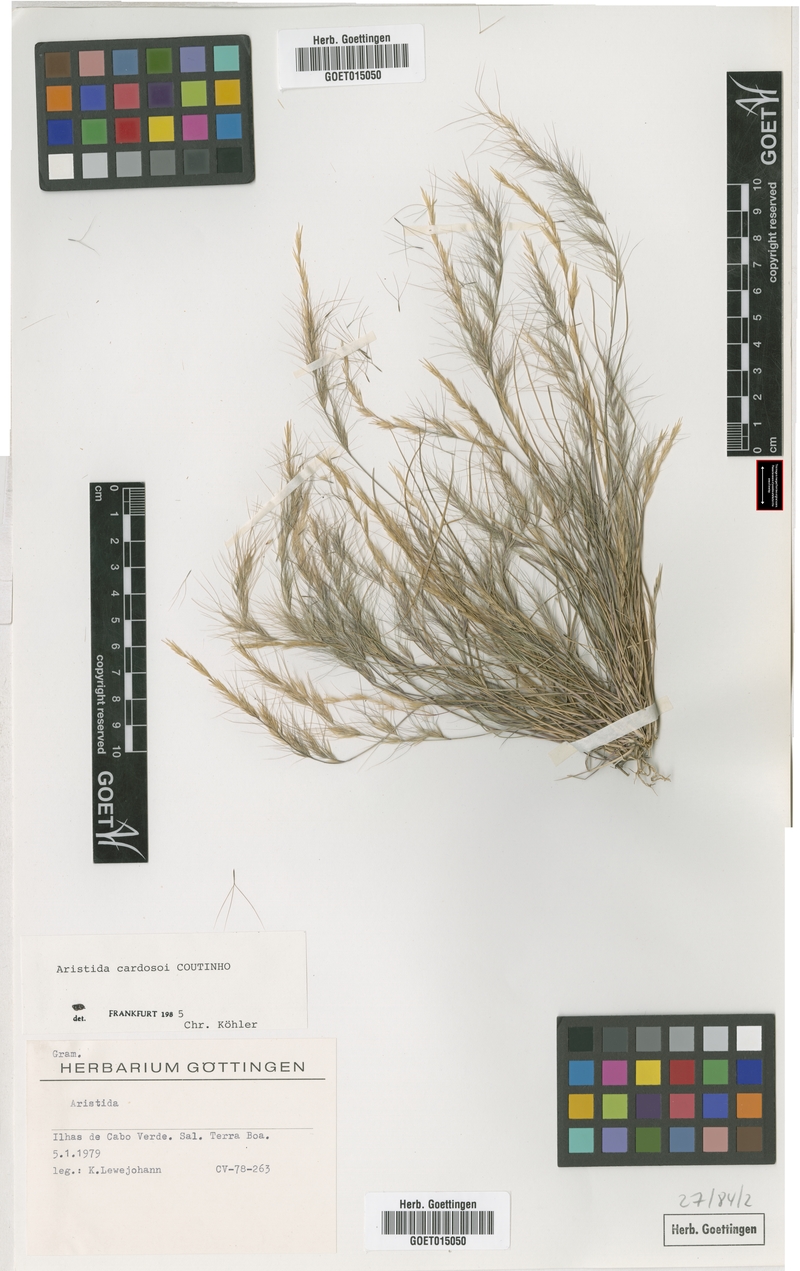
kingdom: Plantae
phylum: Tracheophyta
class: Liliopsida
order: Poales
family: Poaceae
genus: Aristida
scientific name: Aristida adscensionis
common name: Sixweeks threeawn
